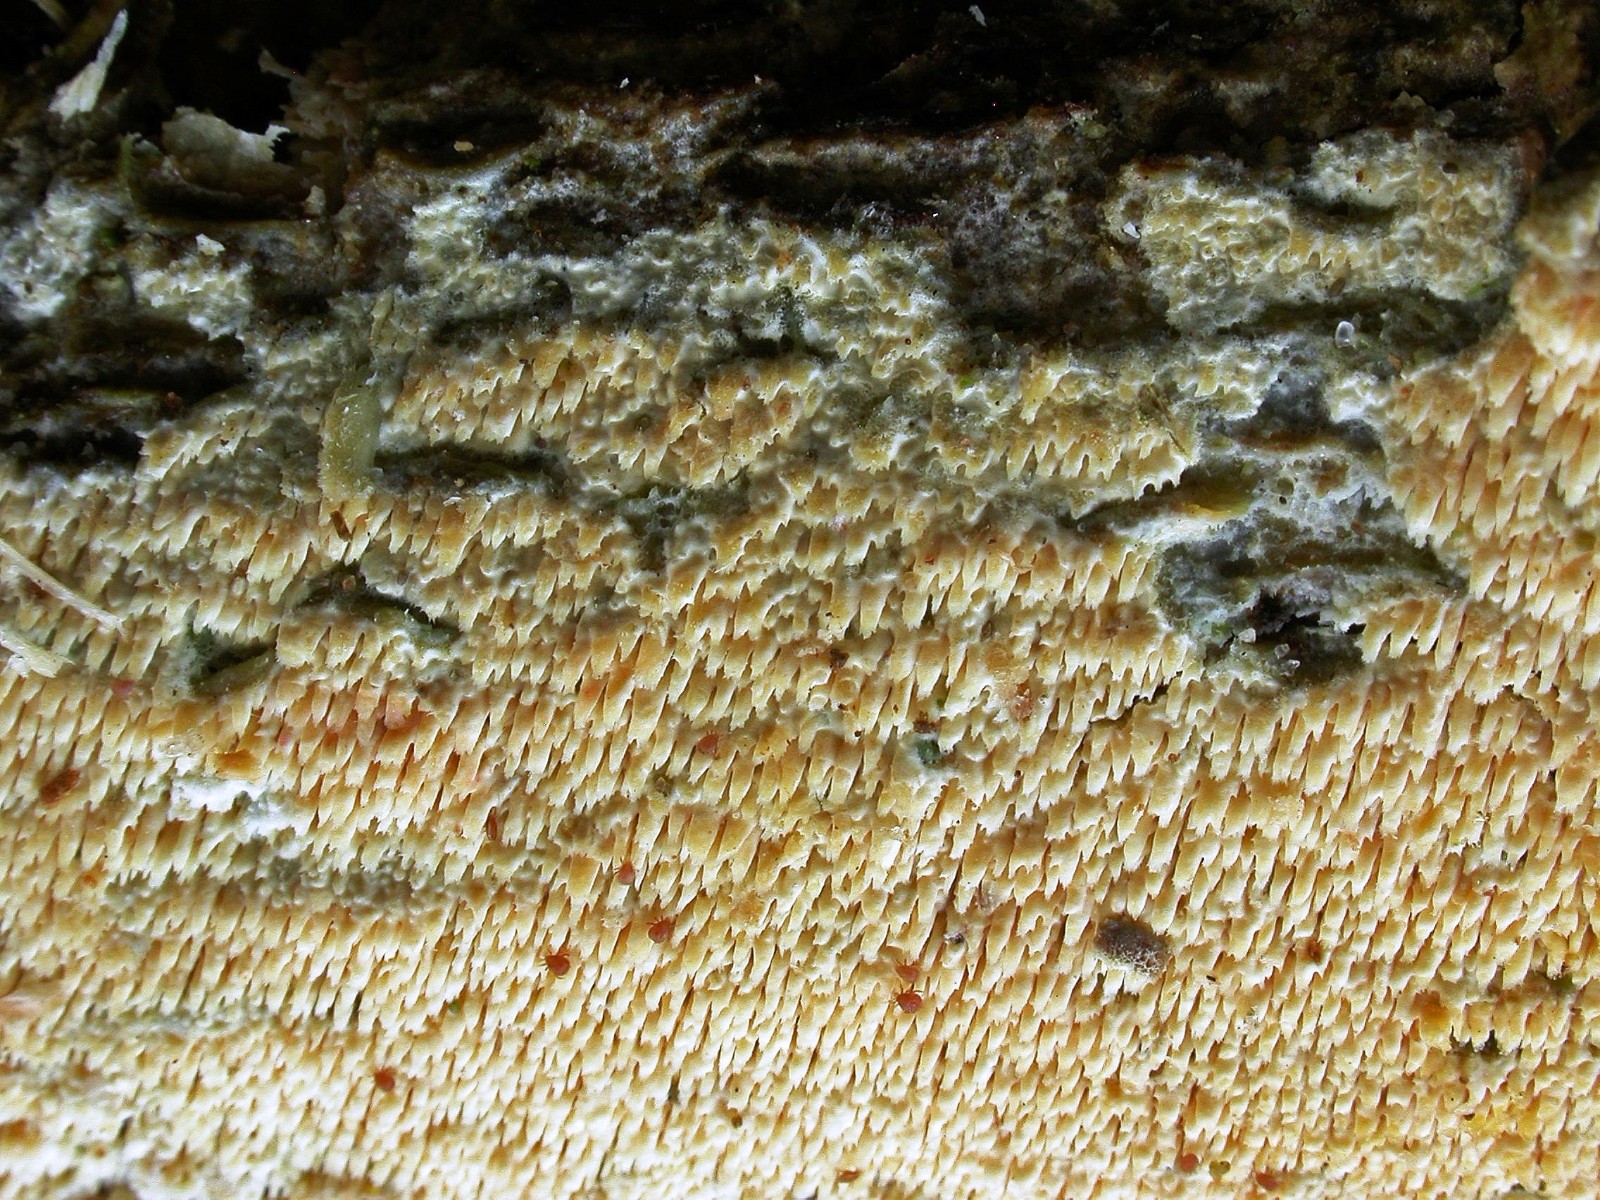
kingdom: Fungi
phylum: Basidiomycota
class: Agaricomycetes
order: Hymenochaetales
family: Hyphodontiaceae
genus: Hyphodontia
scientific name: Hyphodontia quercina
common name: ege-tandsvamp
